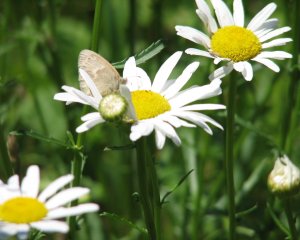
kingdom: Animalia
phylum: Arthropoda
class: Insecta
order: Lepidoptera
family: Nymphalidae
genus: Coenonympha
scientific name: Coenonympha tullia
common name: Large Heath
